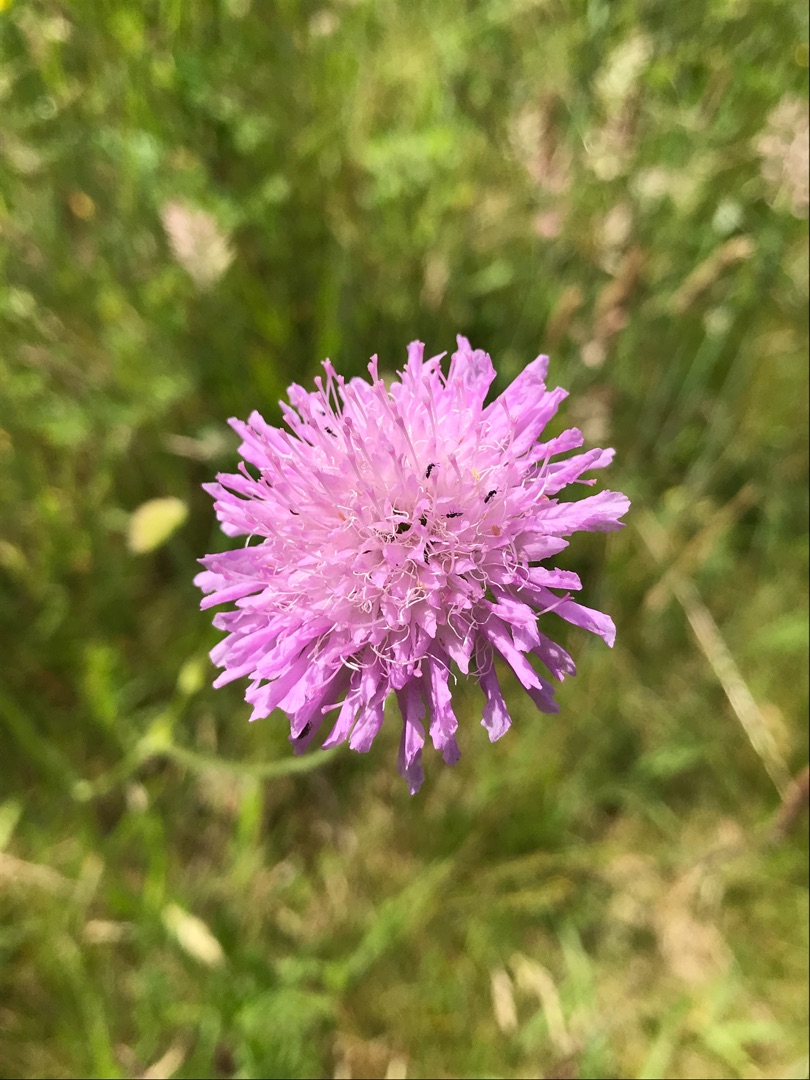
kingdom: Plantae
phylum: Tracheophyta
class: Magnoliopsida
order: Dipsacales
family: Caprifoliaceae
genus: Knautia
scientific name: Knautia arvensis
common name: Blåhat
